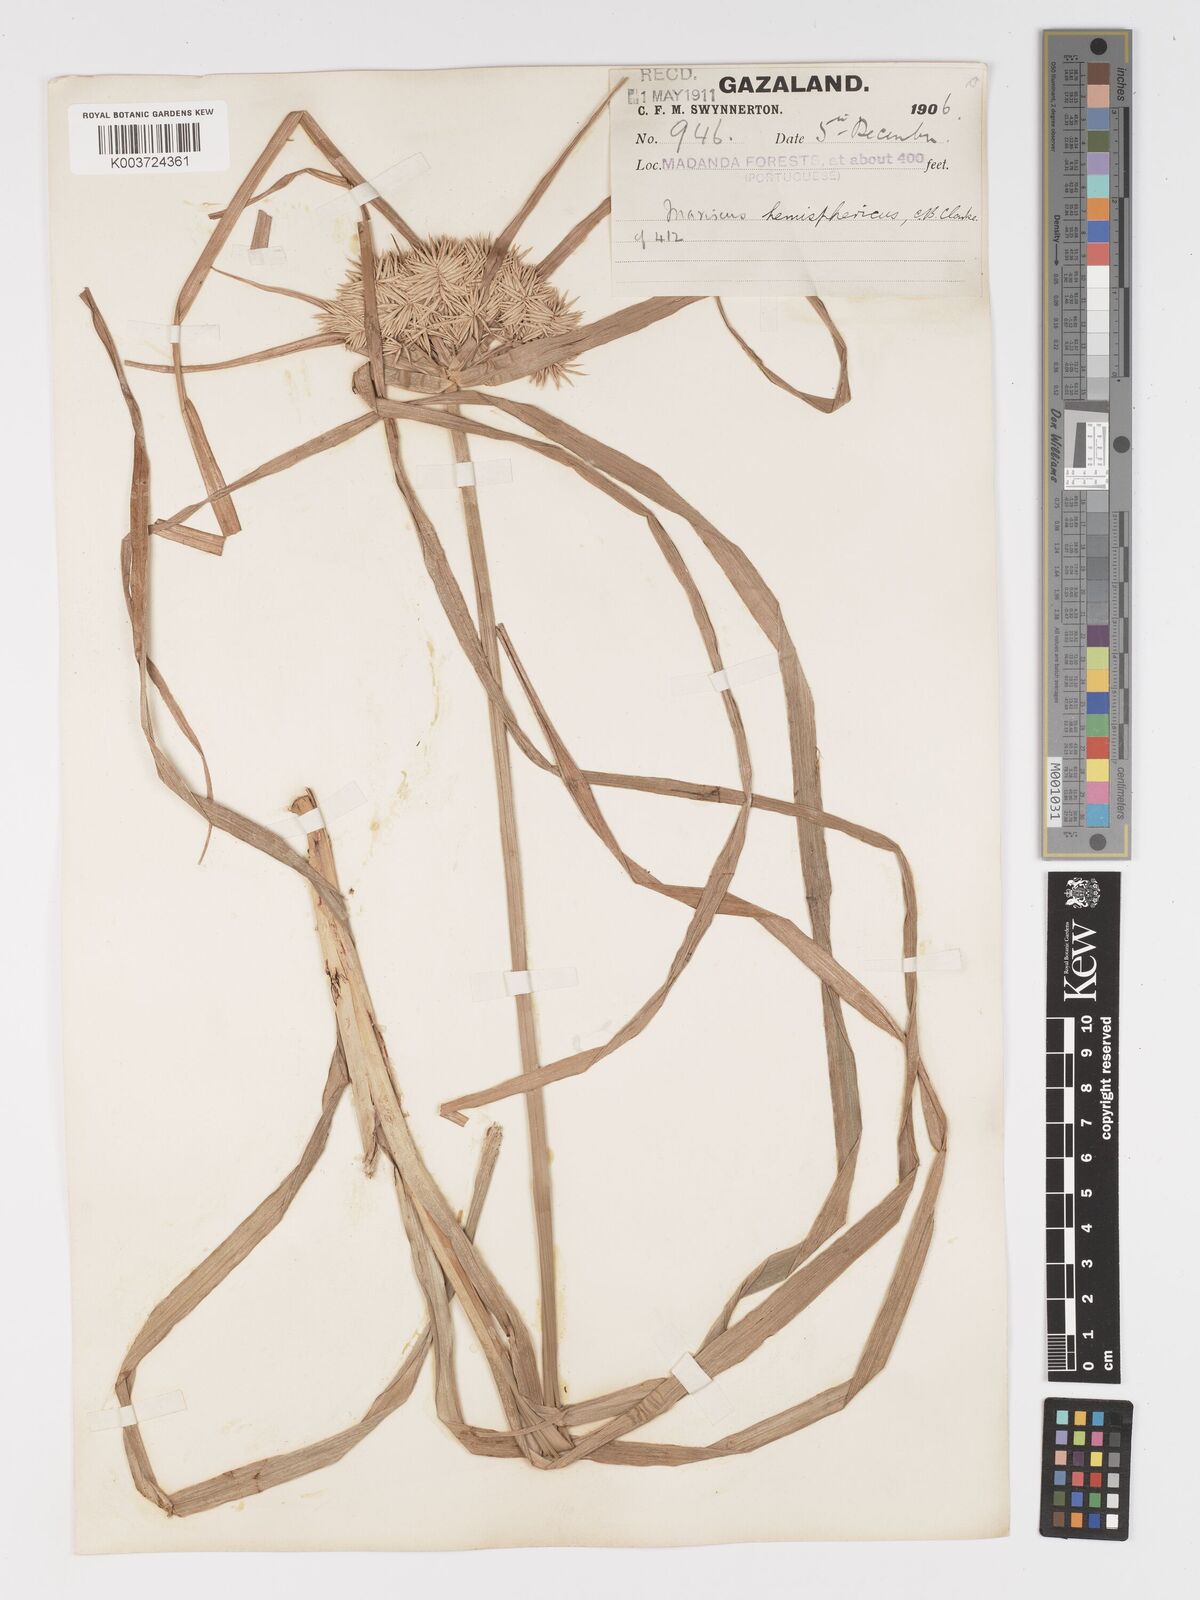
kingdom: Plantae
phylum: Tracheophyta
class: Liliopsida
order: Poales
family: Cyperaceae
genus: Cyperus
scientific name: Cyperus hemisphaericus
